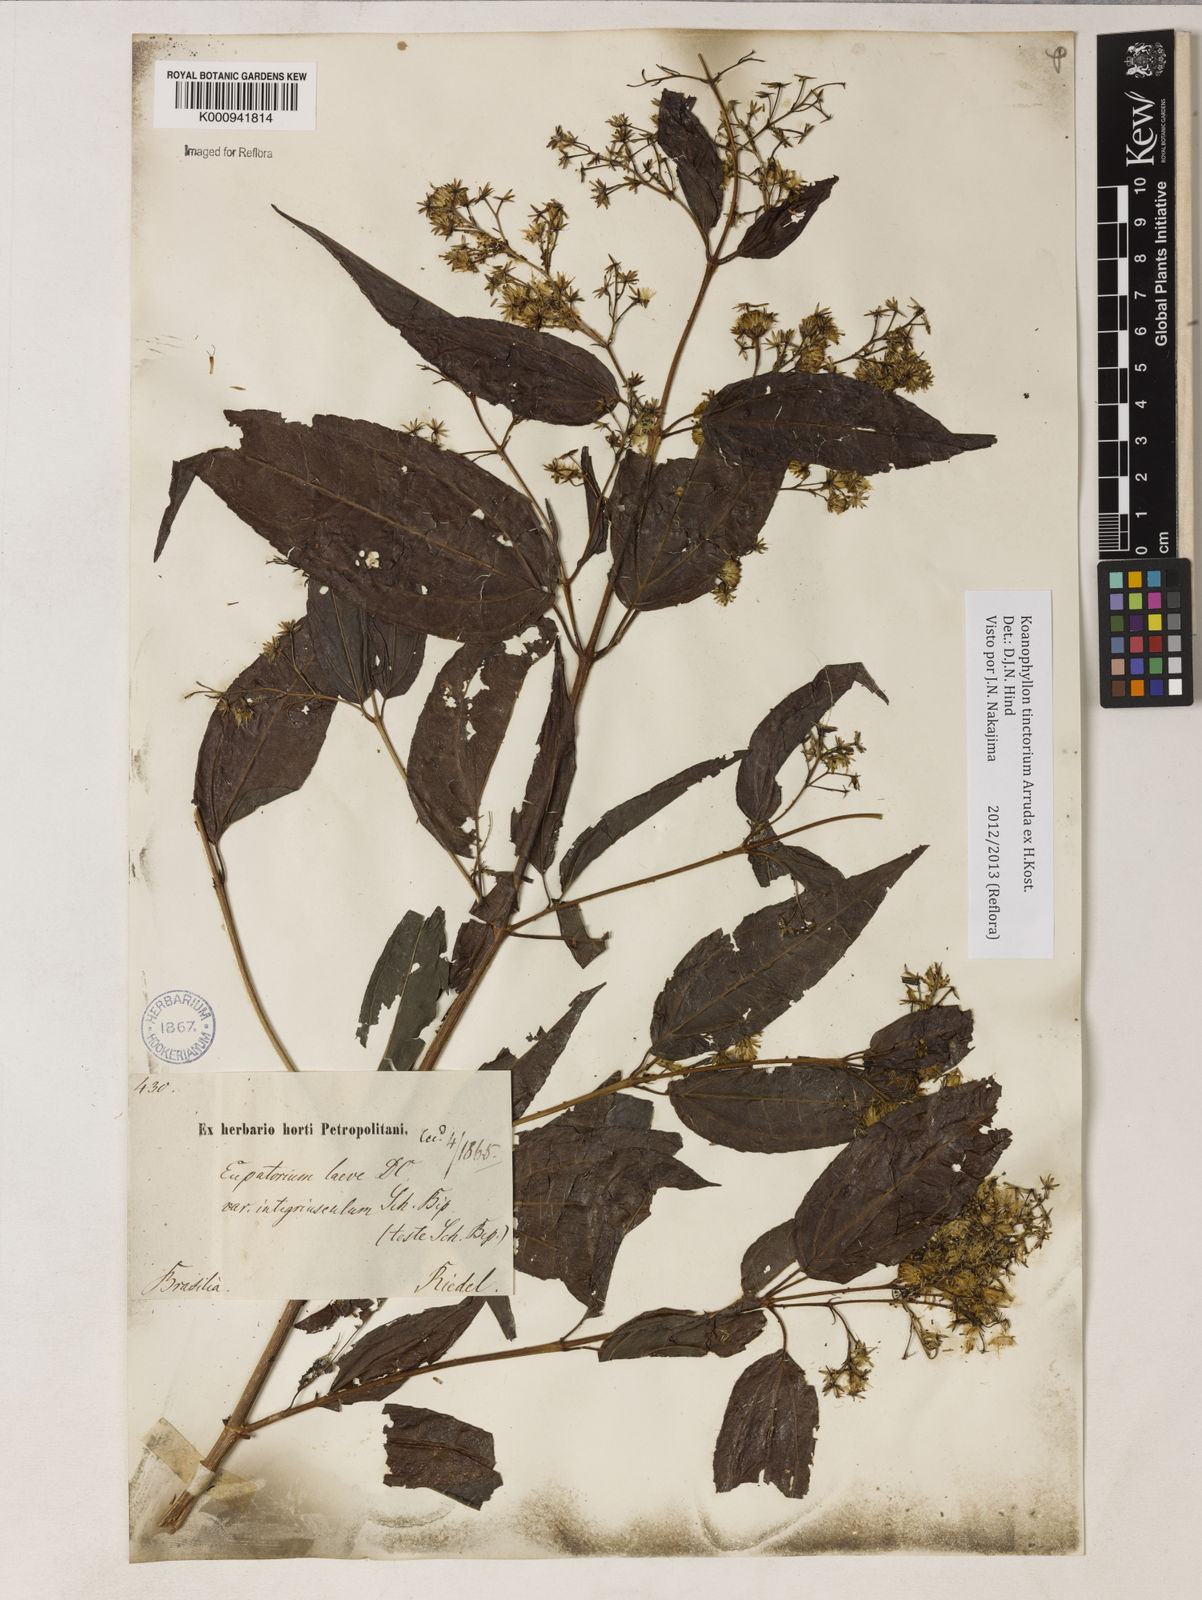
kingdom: Plantae
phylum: Tracheophyta
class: Magnoliopsida
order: Asterales
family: Asteraceae
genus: Koanophyllon
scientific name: Koanophyllon
